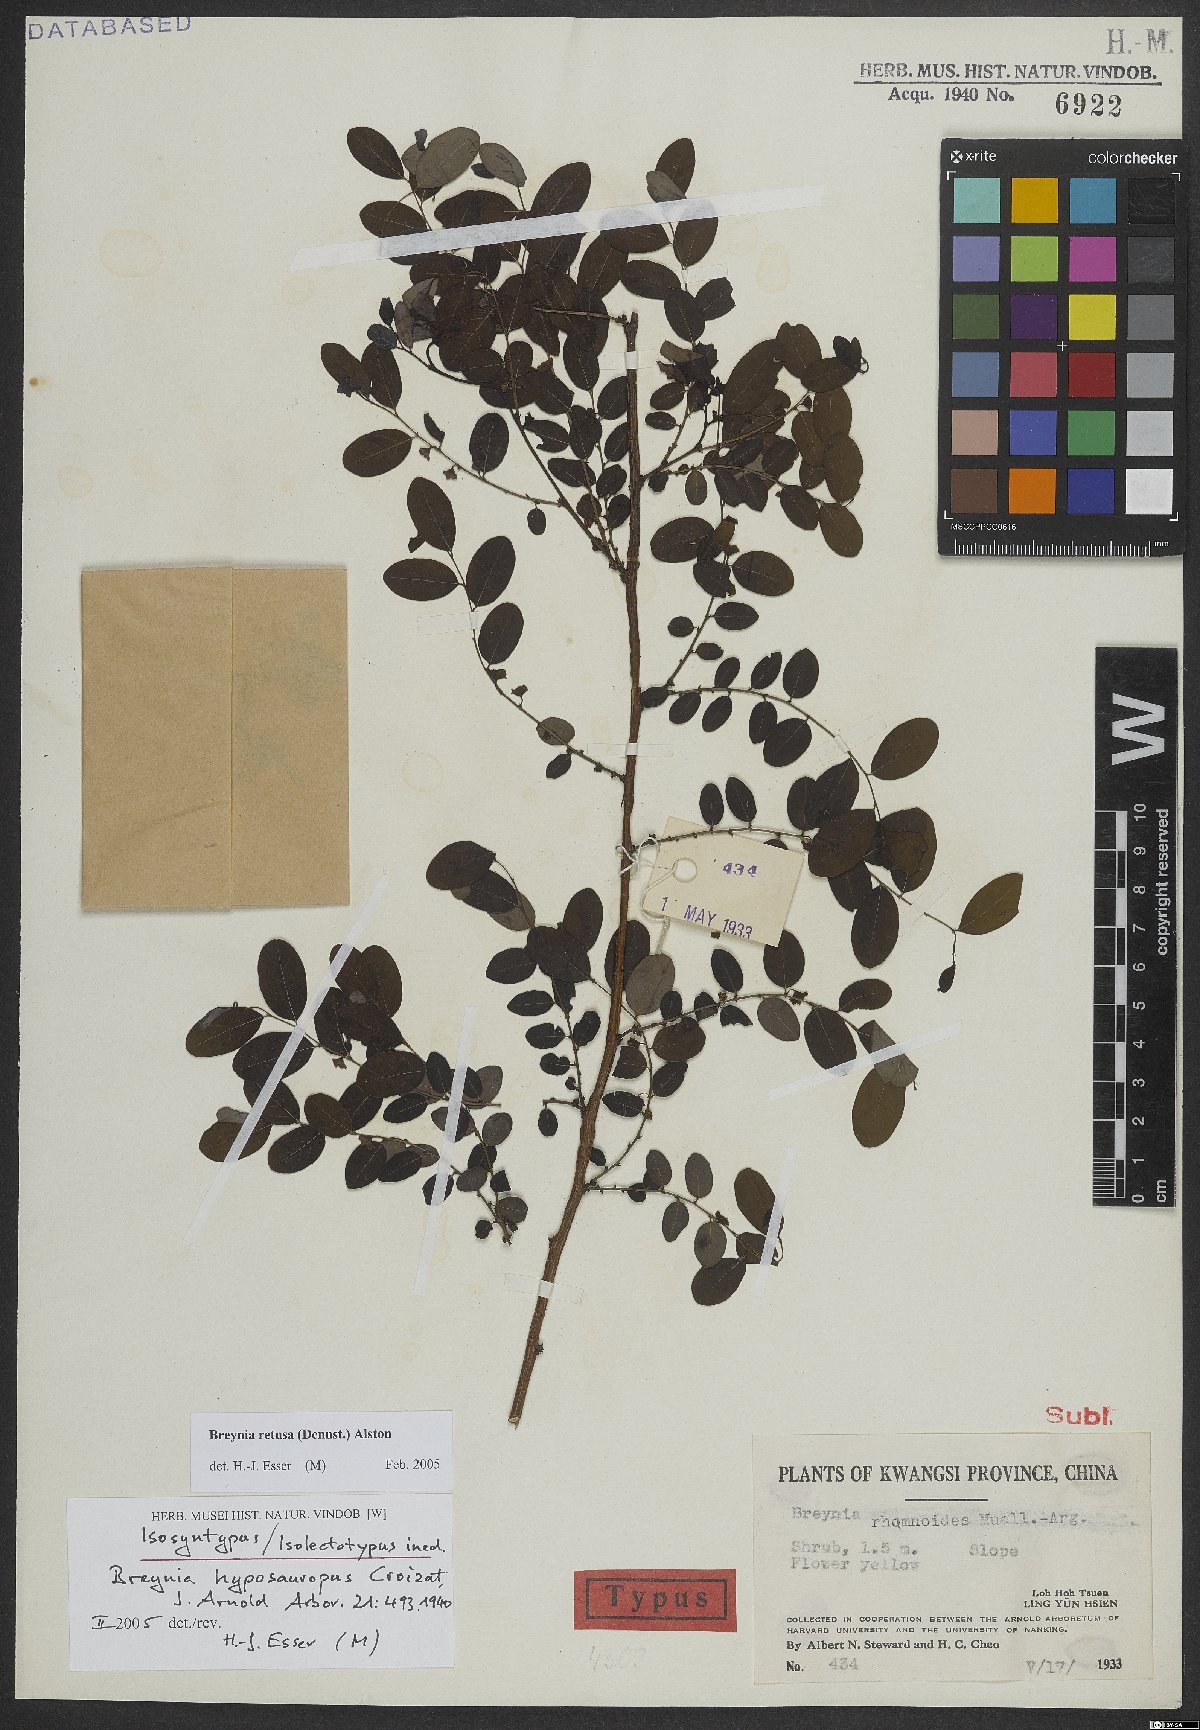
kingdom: Plantae
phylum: Tracheophyta
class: Magnoliopsida
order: Malpighiales
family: Phyllanthaceae
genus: Breynia
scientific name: Breynia retusa
